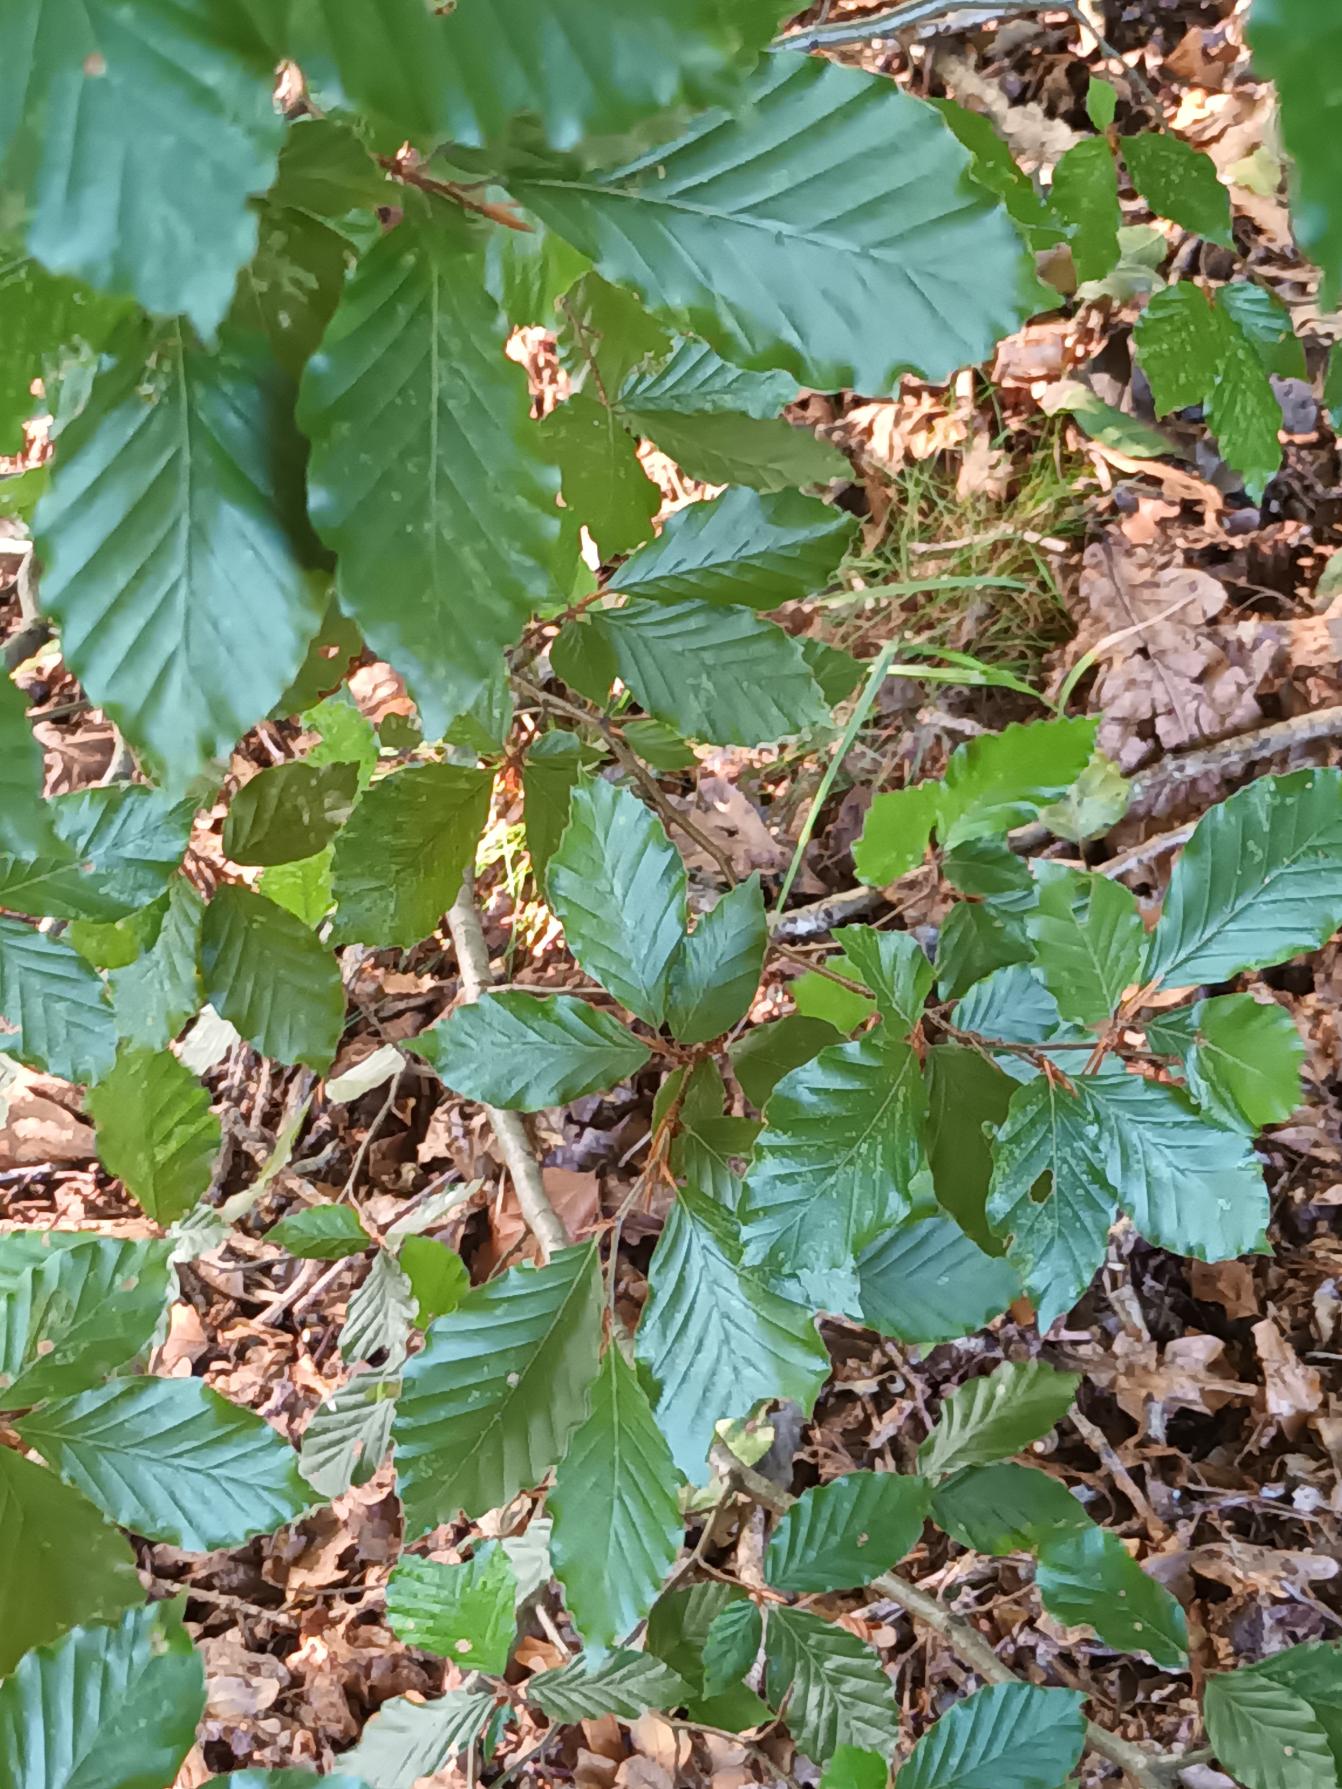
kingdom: Plantae
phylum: Tracheophyta
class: Magnoliopsida
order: Fagales
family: Fagaceae
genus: Fagus
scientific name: Fagus sylvatica
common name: Bøg
